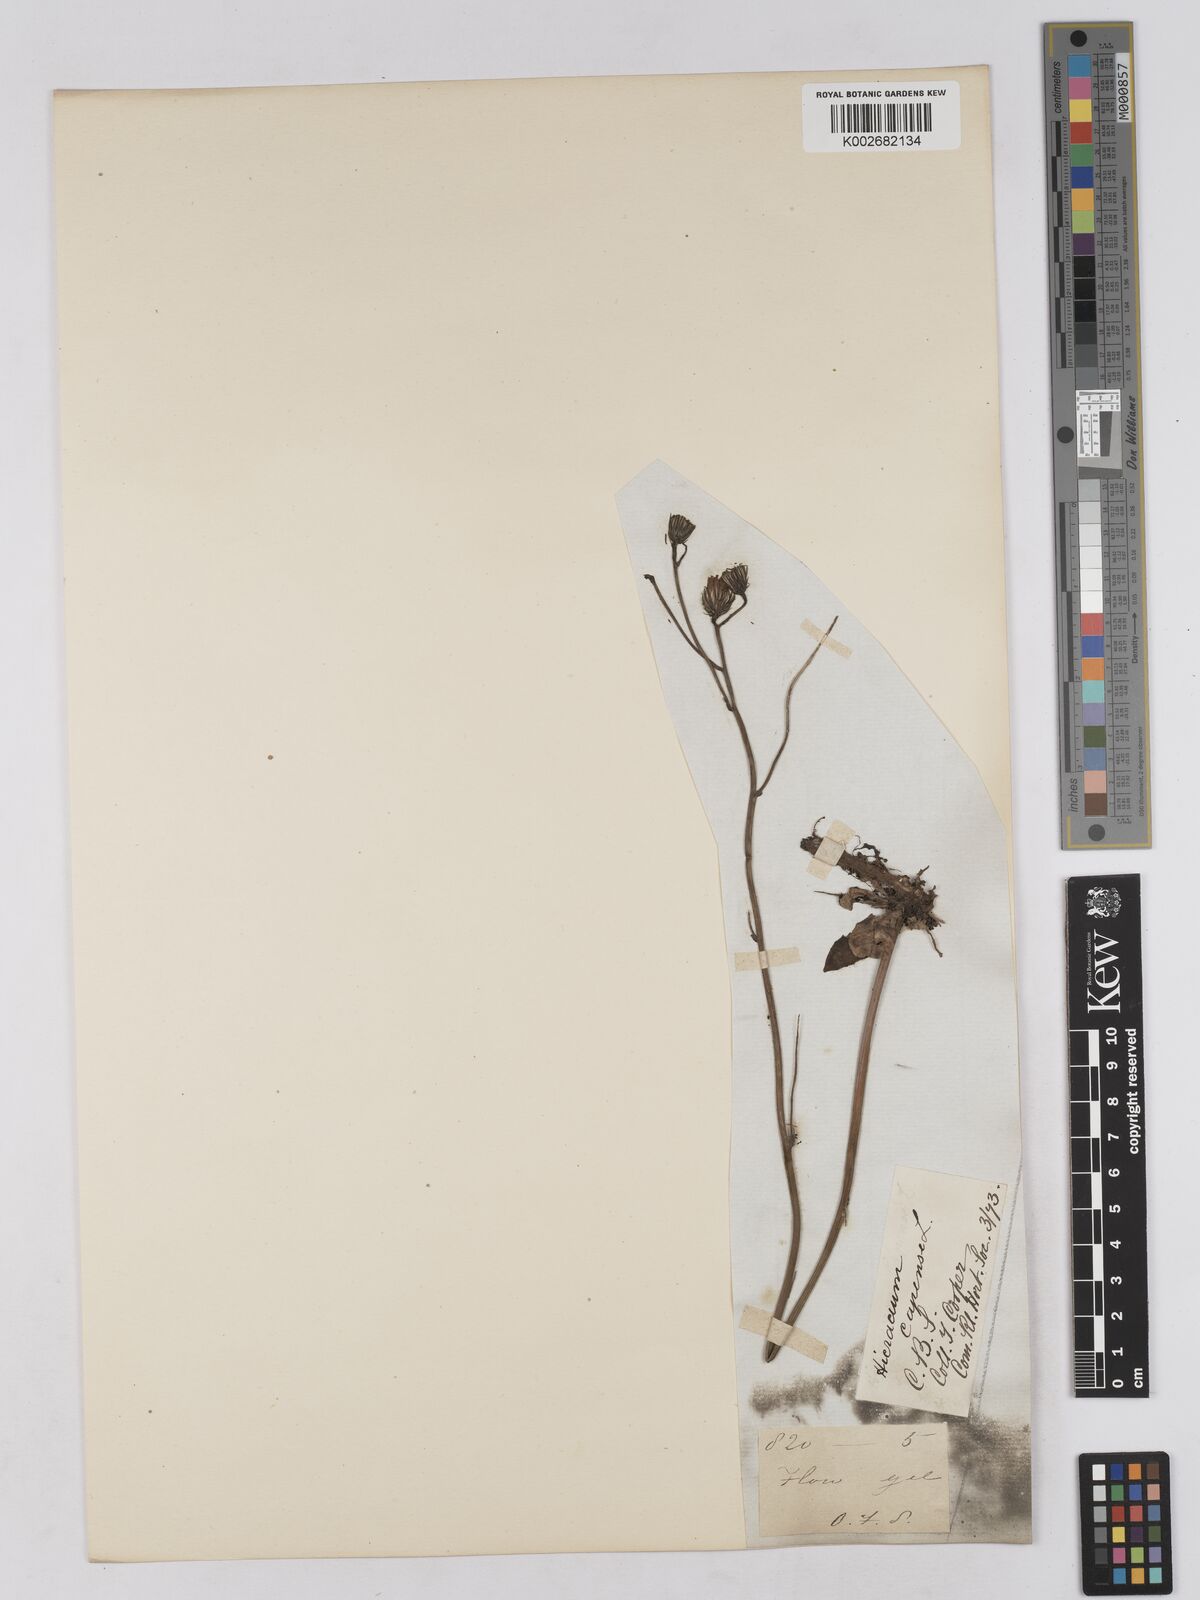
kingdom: Plantae
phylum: Tracheophyta
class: Magnoliopsida
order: Asterales
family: Asteraceae
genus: Tolpis
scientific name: Tolpis capensis
